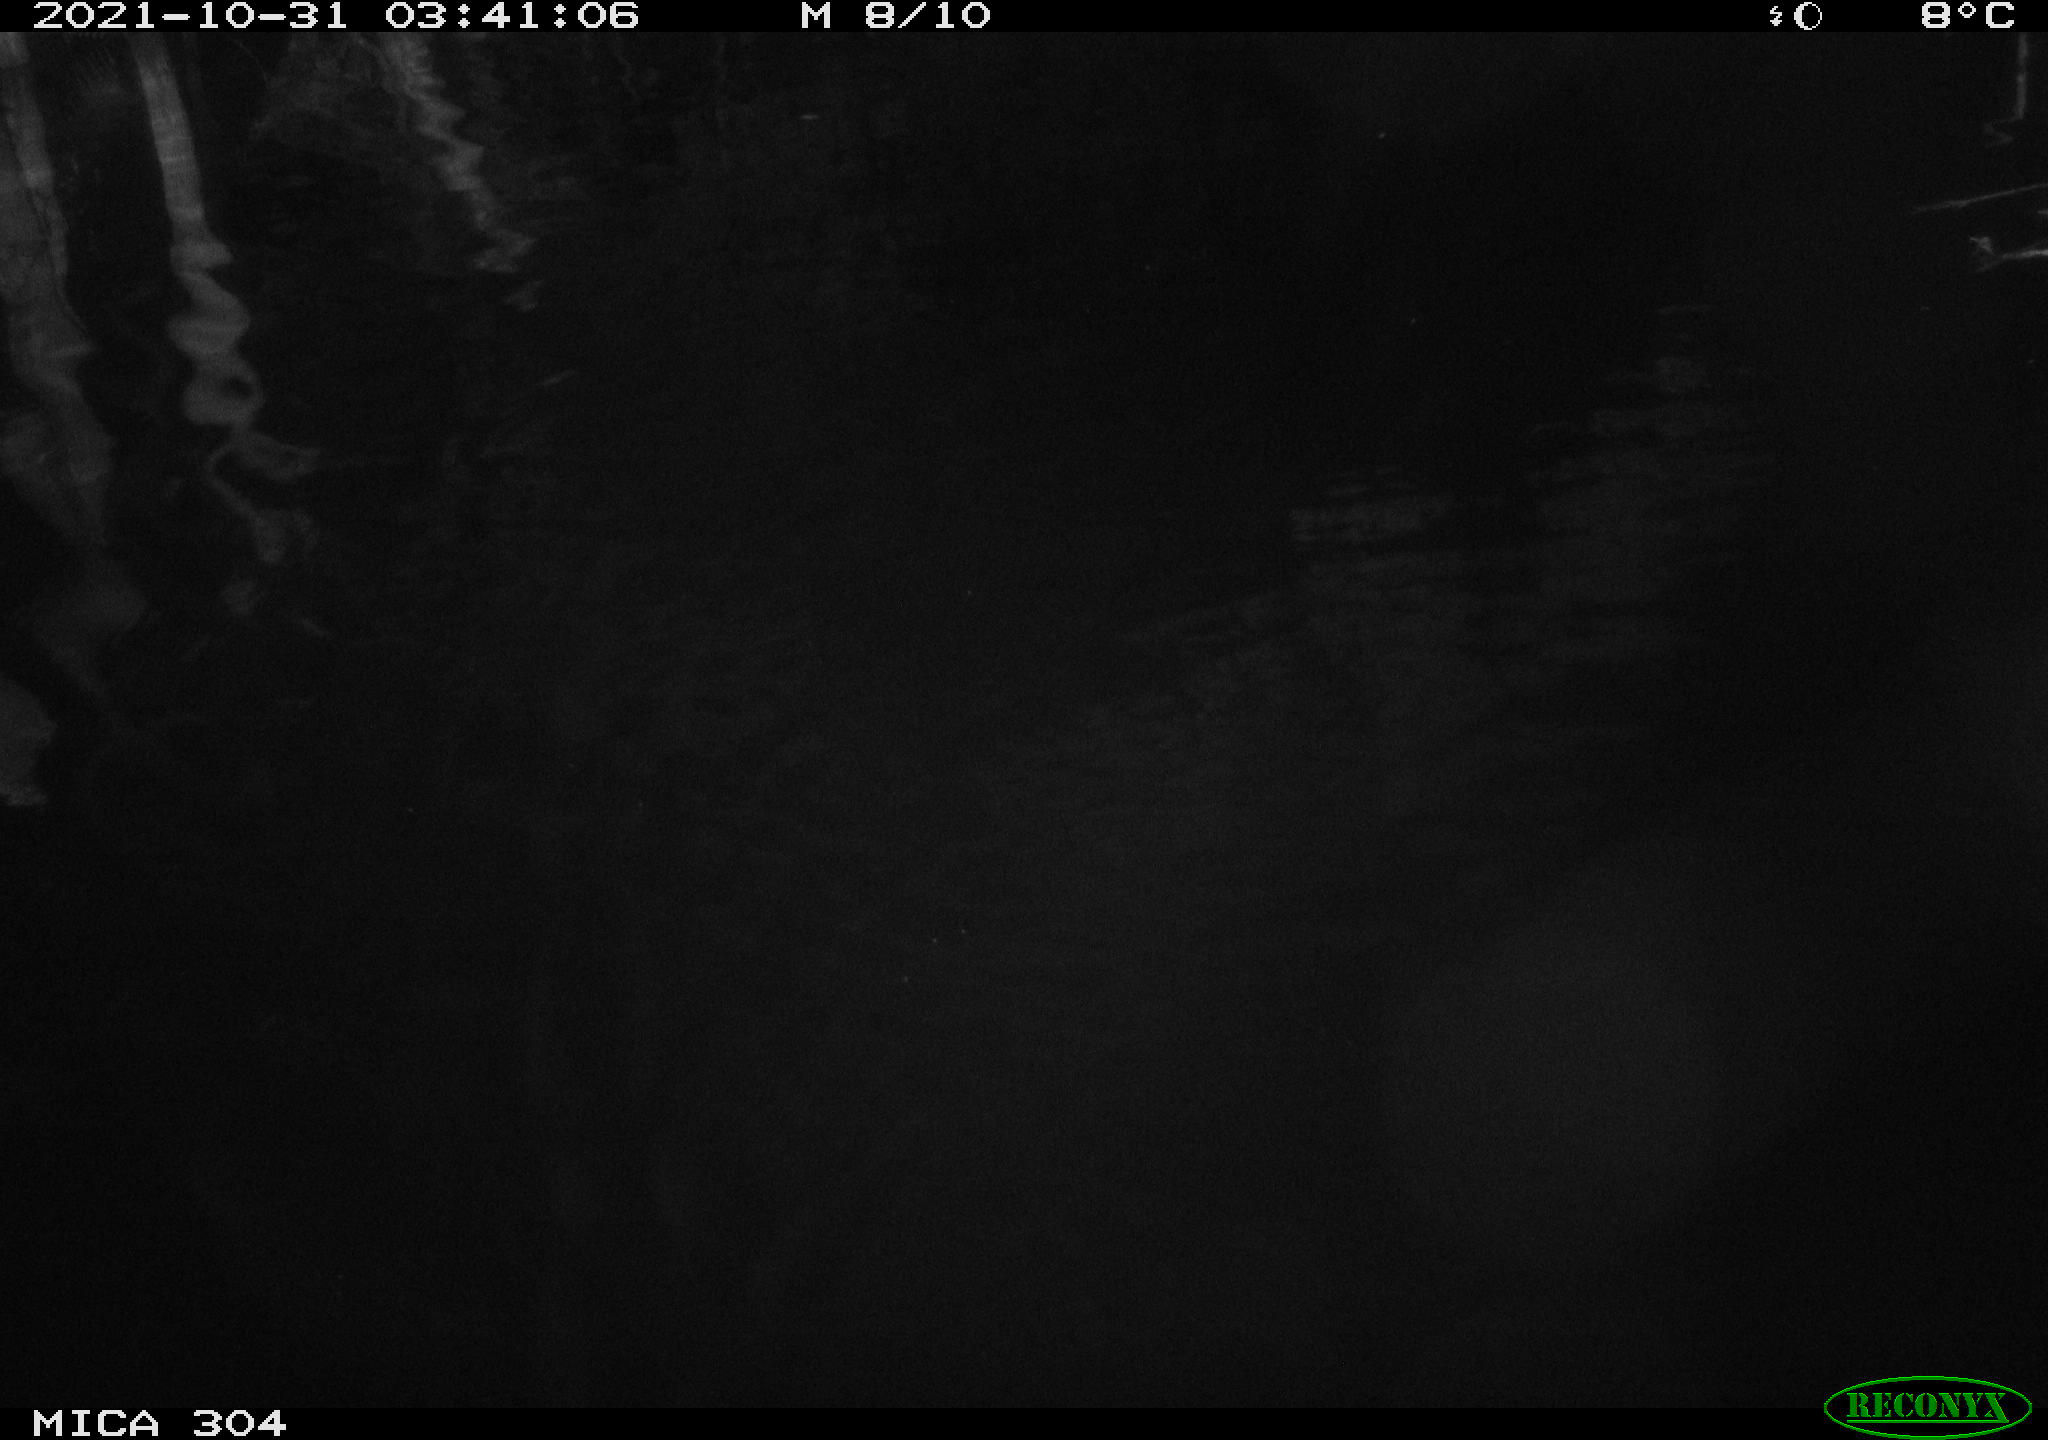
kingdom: Animalia
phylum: Chordata
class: Mammalia
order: Rodentia
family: Cricetidae
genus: Ondatra
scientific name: Ondatra zibethicus
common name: Muskrat
